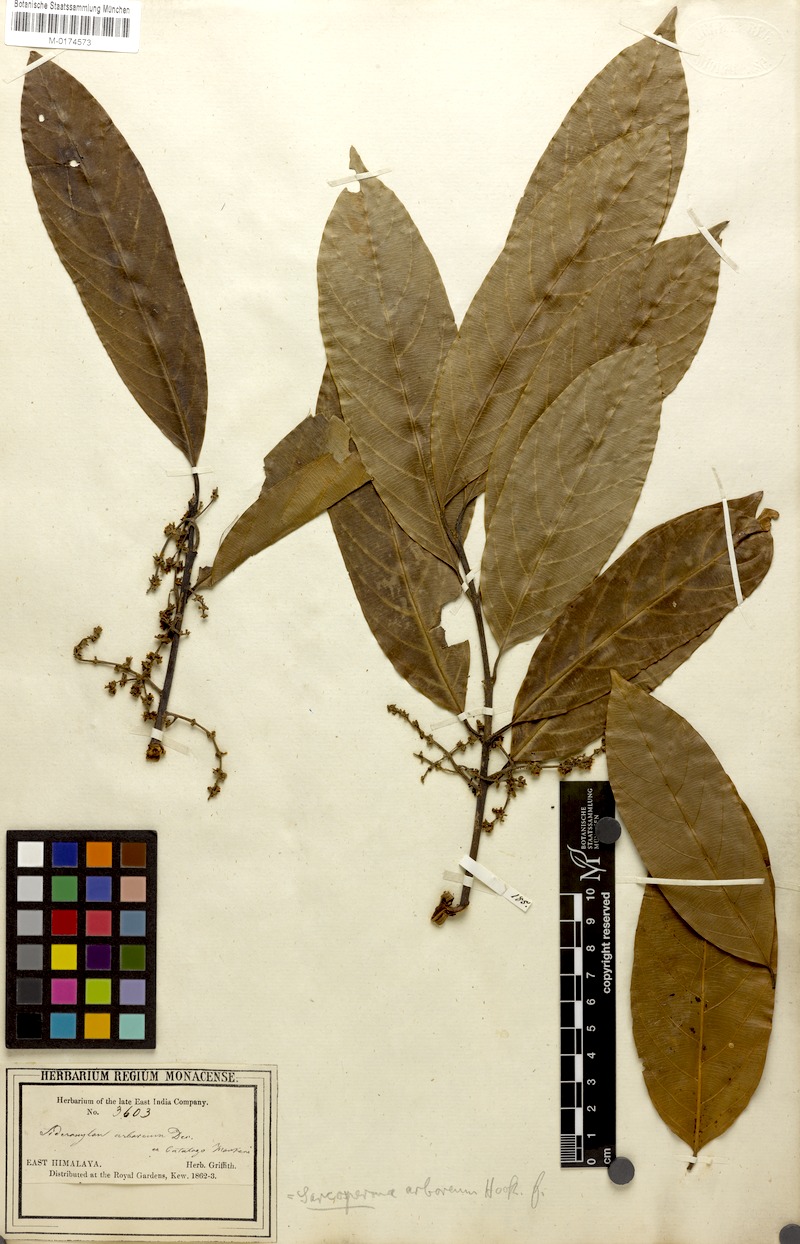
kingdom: Plantae
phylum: Tracheophyta
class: Magnoliopsida
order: Ericales
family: Sapotaceae
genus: Sarcosperma
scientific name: Sarcosperma arboreum
